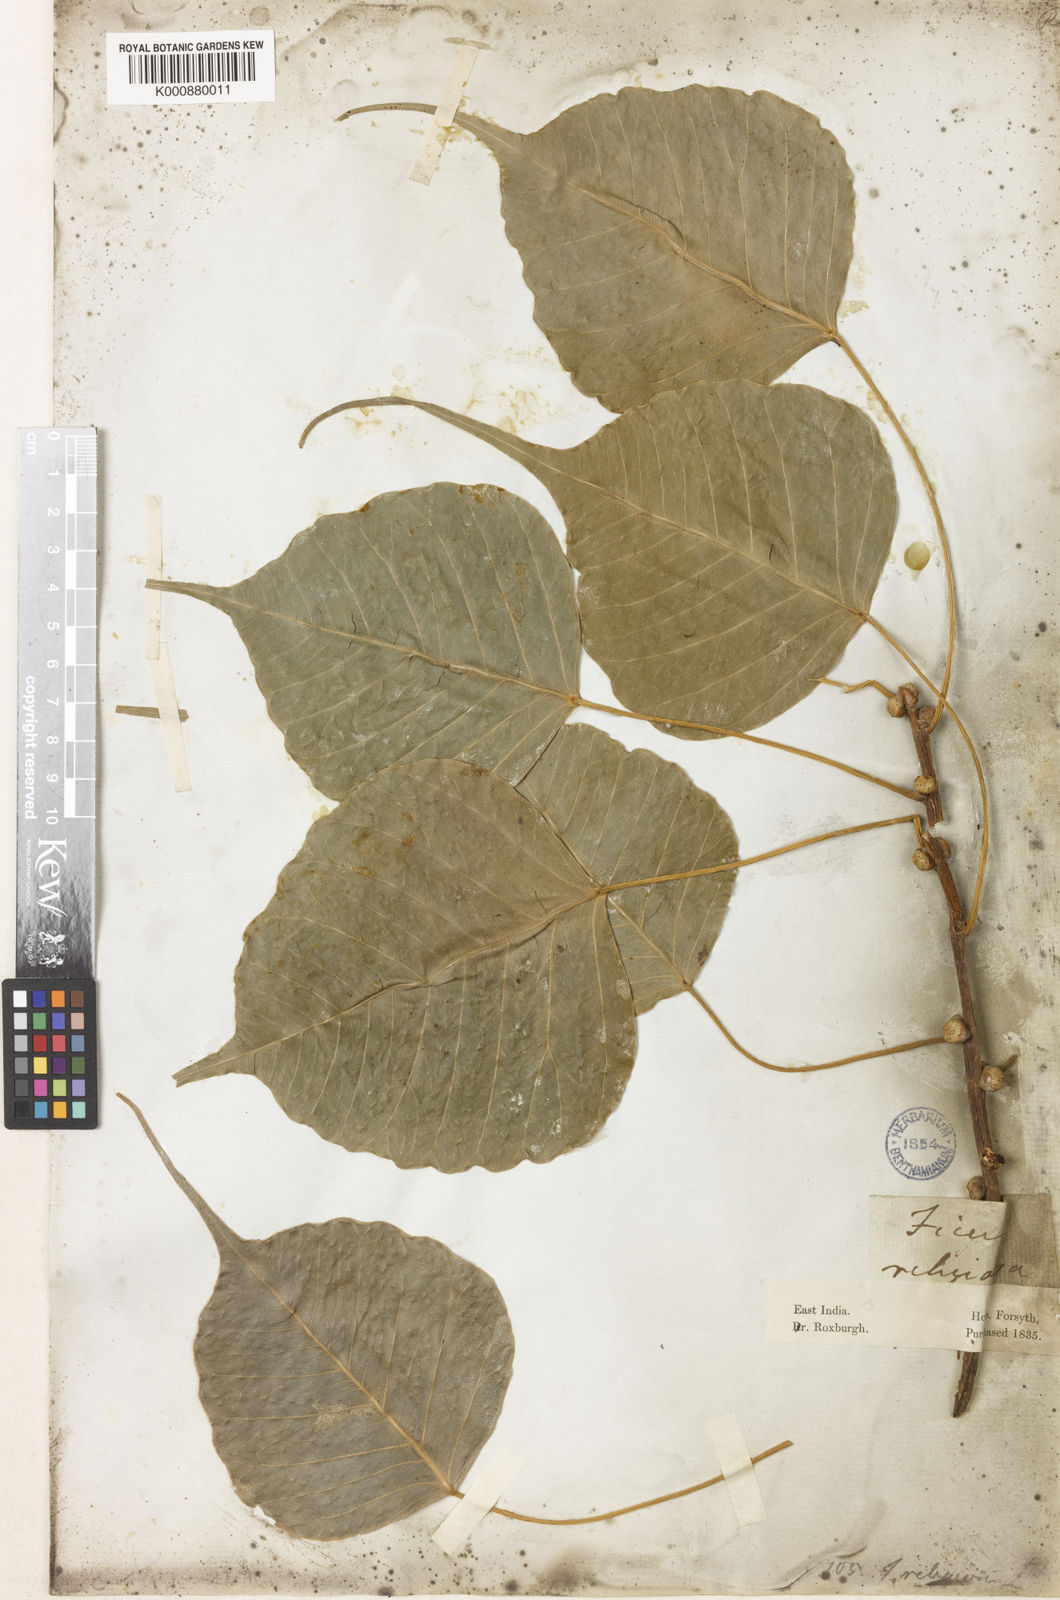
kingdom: Plantae
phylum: Tracheophyta
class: Magnoliopsida
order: Rosales
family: Moraceae
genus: Ficus
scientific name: Ficus religiosa
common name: Bodhi tree
